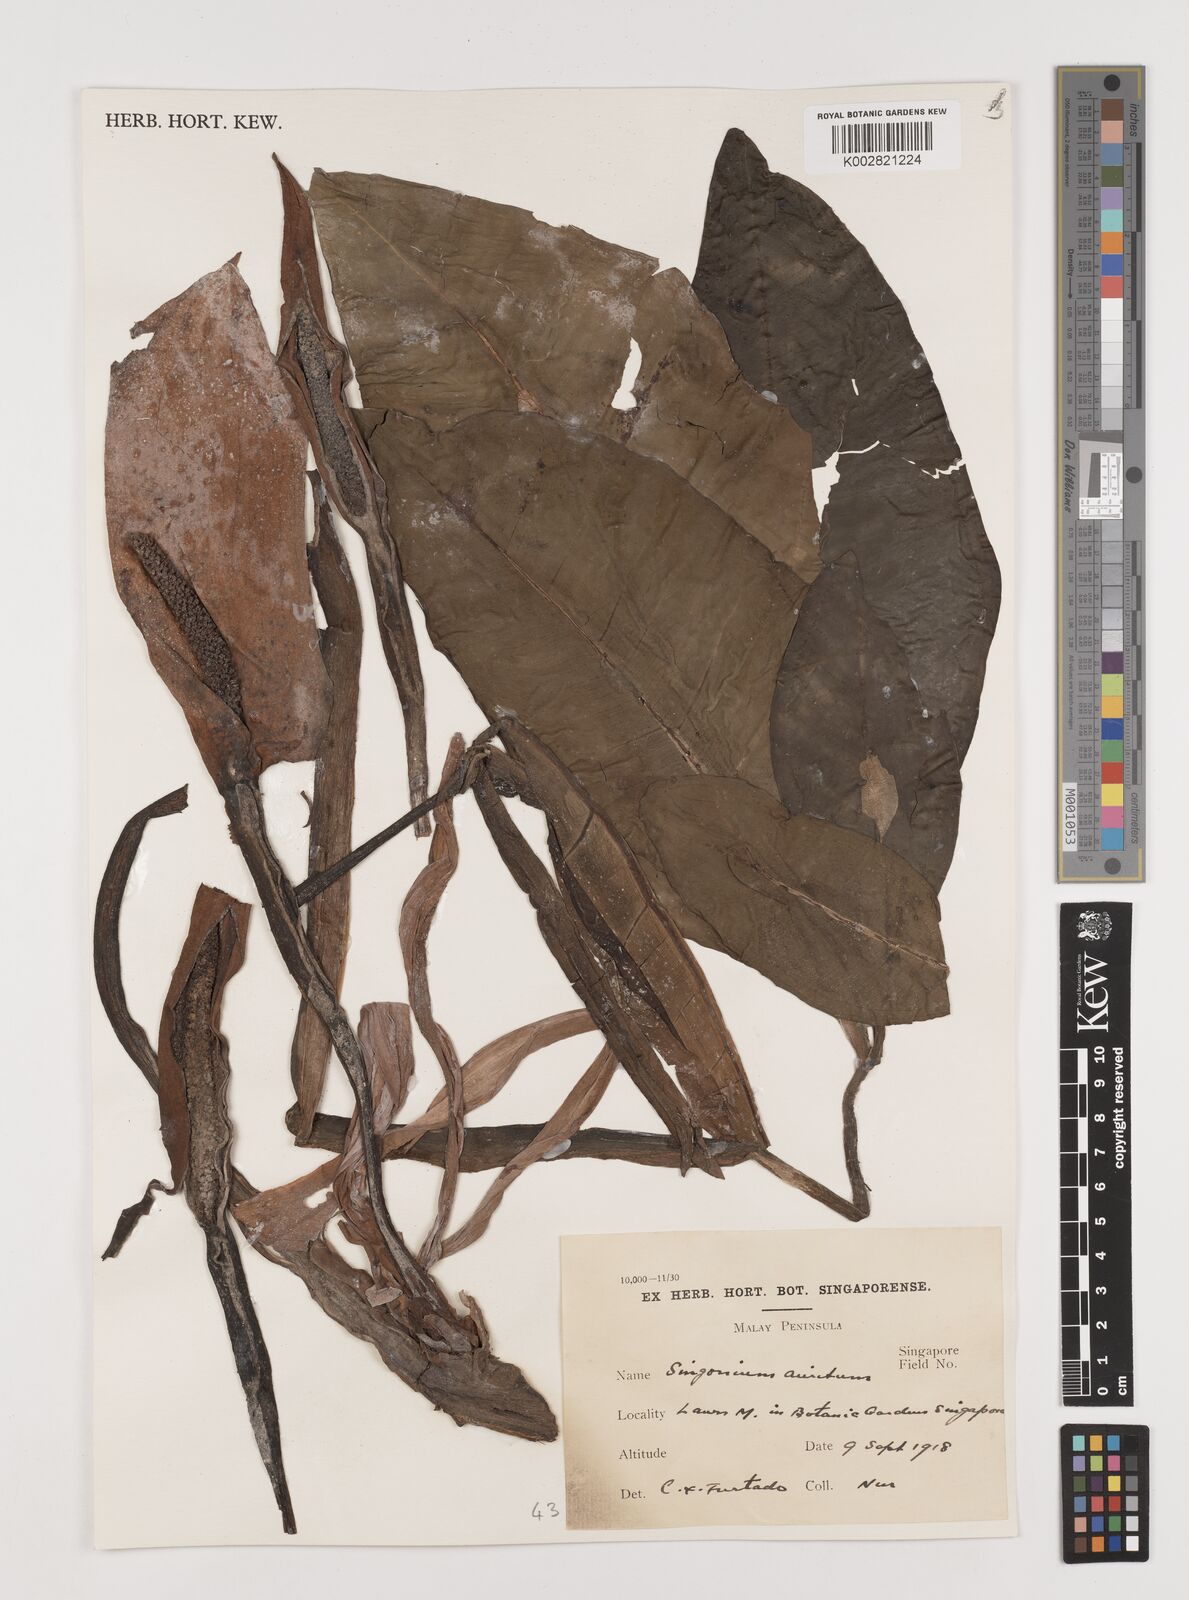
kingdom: Plantae
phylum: Tracheophyta
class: Liliopsida
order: Alismatales
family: Araceae
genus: Syngonium
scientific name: Syngonium auritum
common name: Five-fingers
